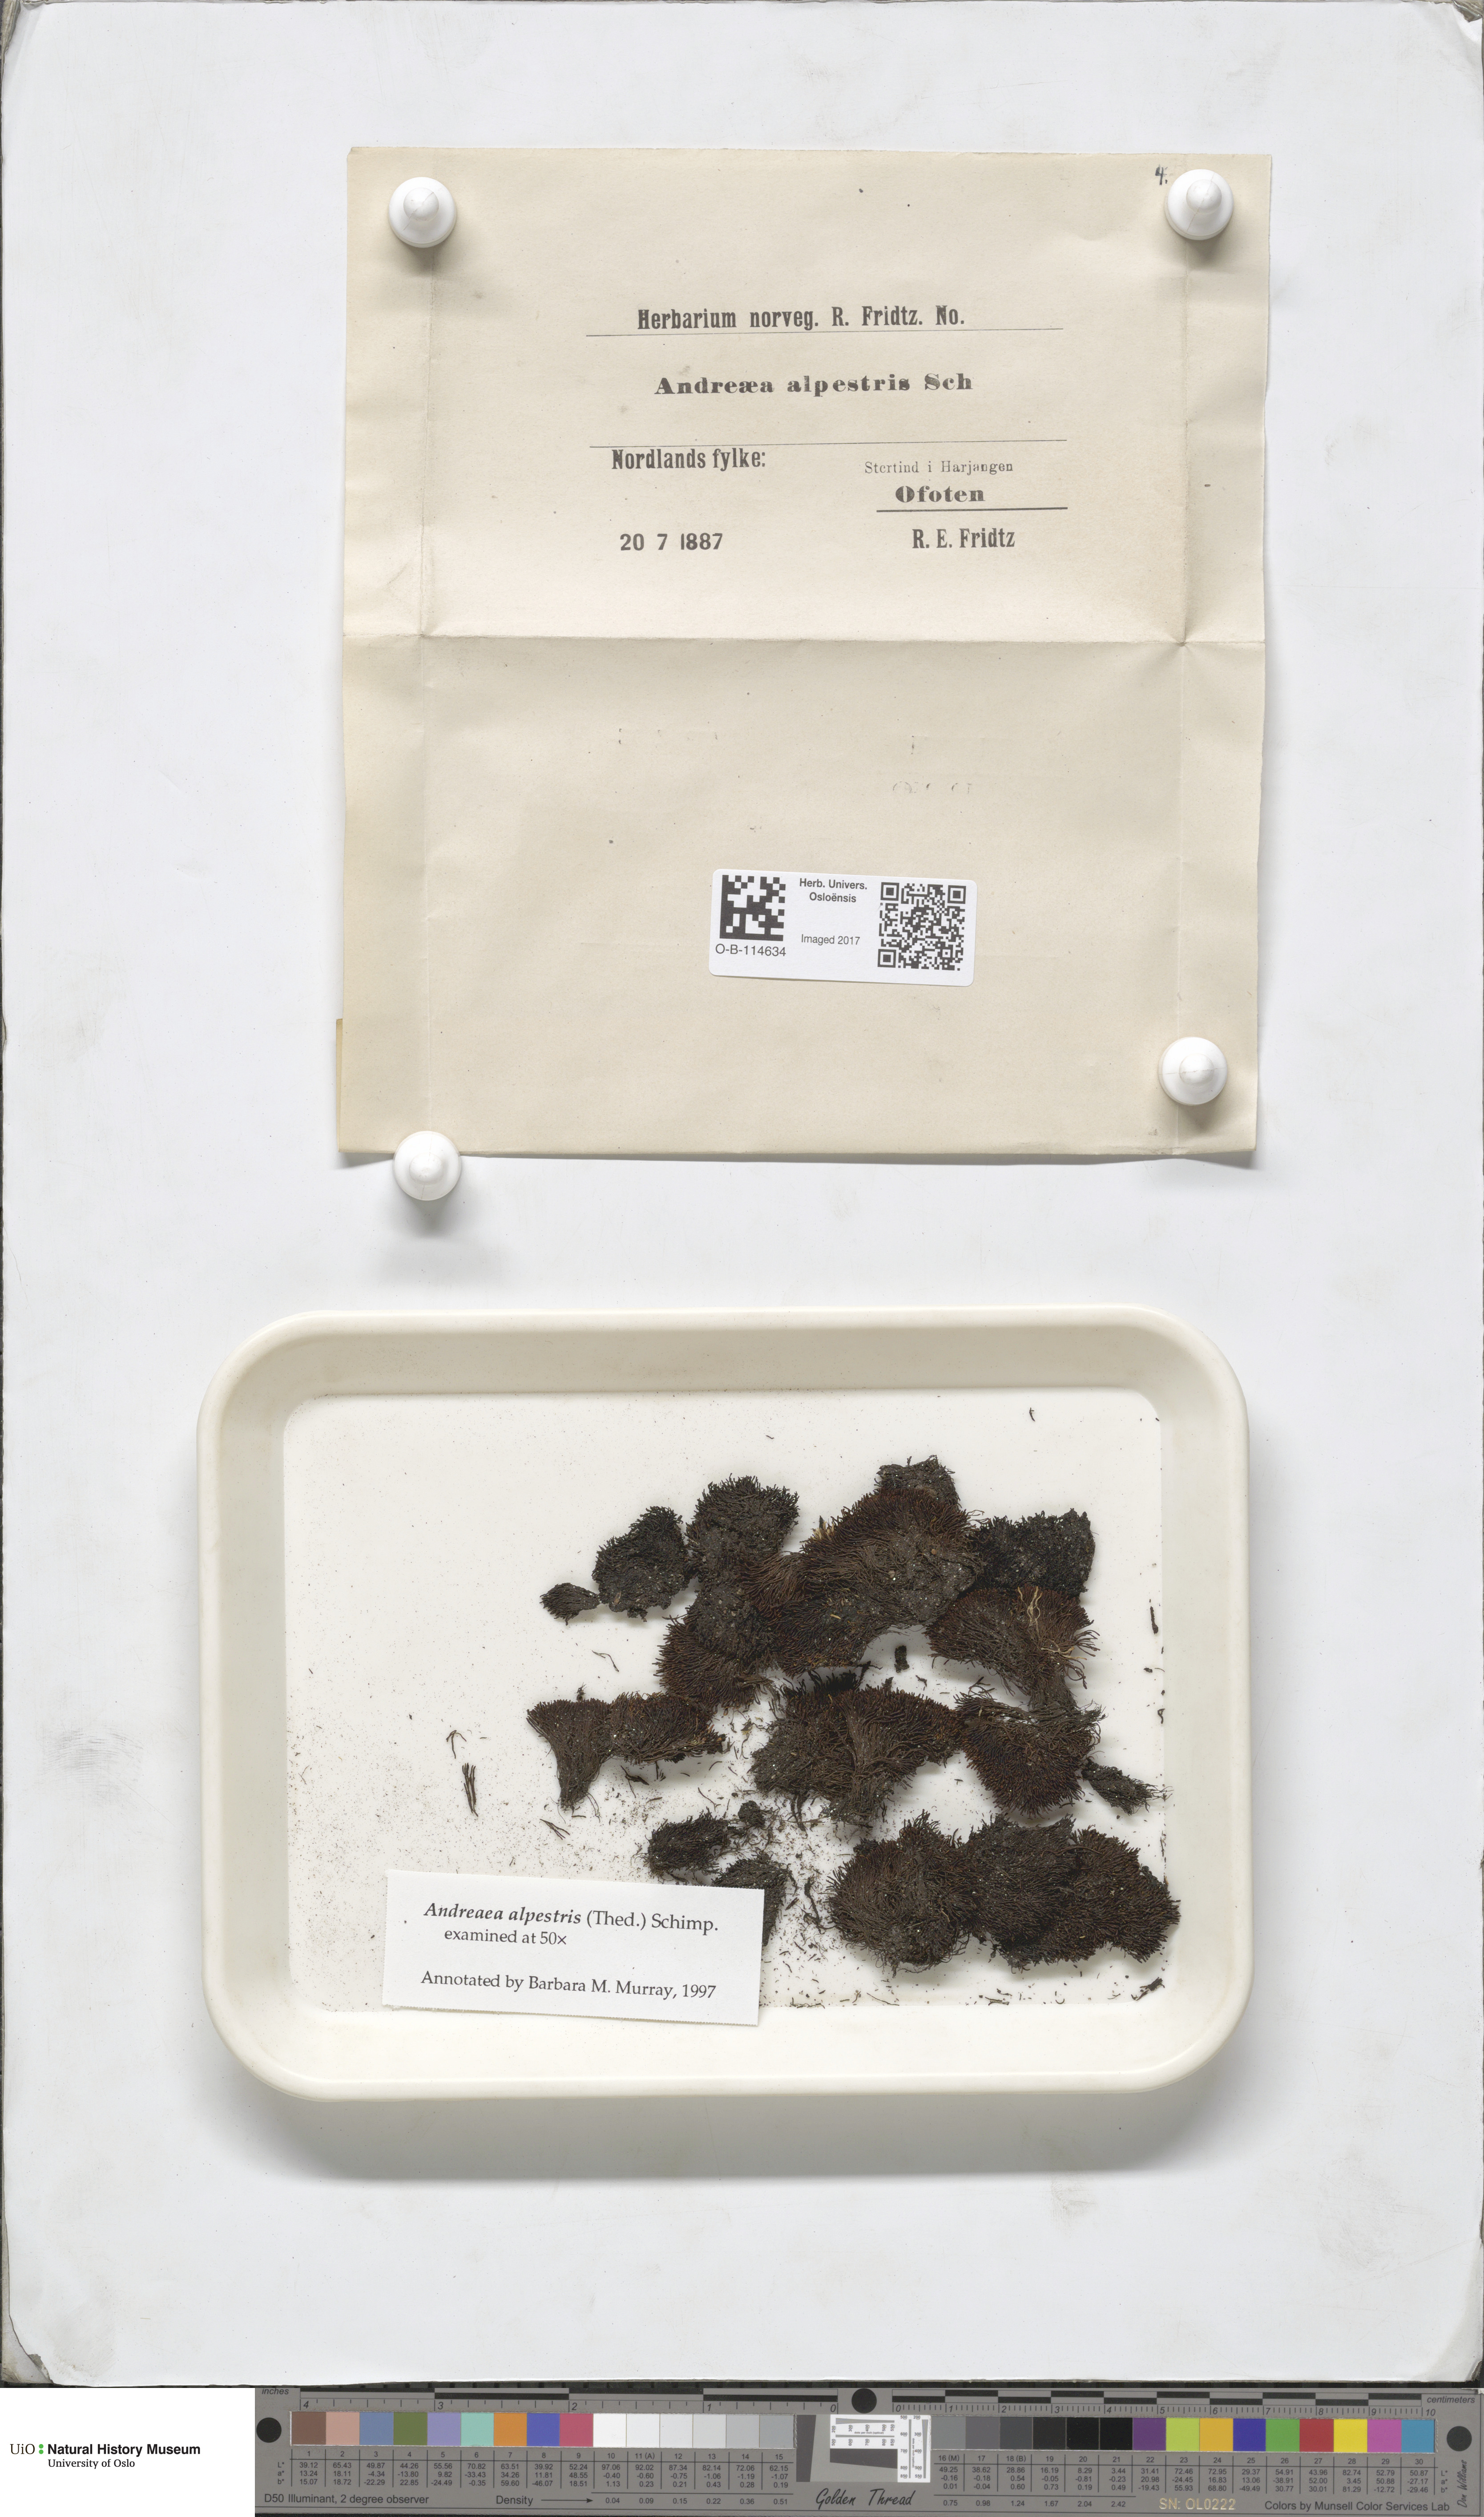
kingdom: Plantae
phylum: Bryophyta
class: Andreaeopsida
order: Andreaeales
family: Andreaeaceae
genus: Andreaea
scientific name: Andreaea alpestris
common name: Slender rock-moss
